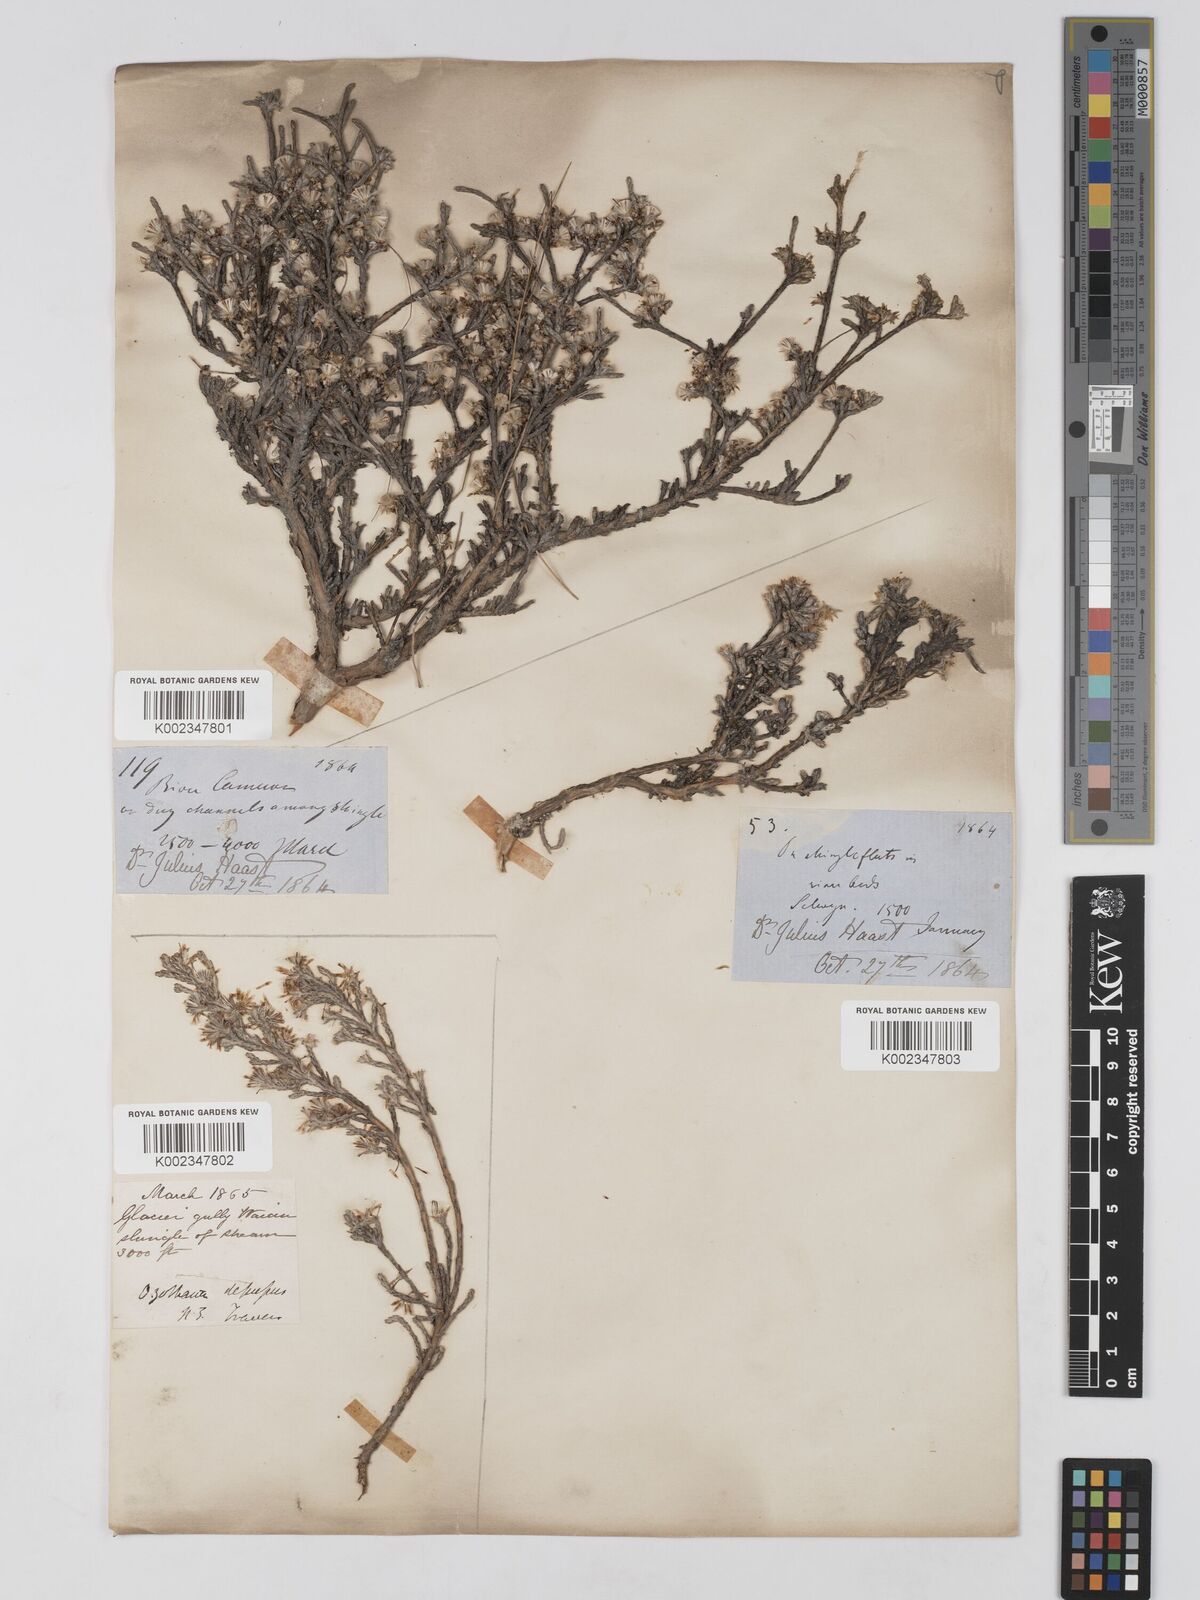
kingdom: Plantae
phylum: Tracheophyta
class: Magnoliopsida
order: Asterales
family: Asteraceae
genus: Ozothamnus
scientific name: Ozothamnus depressus
